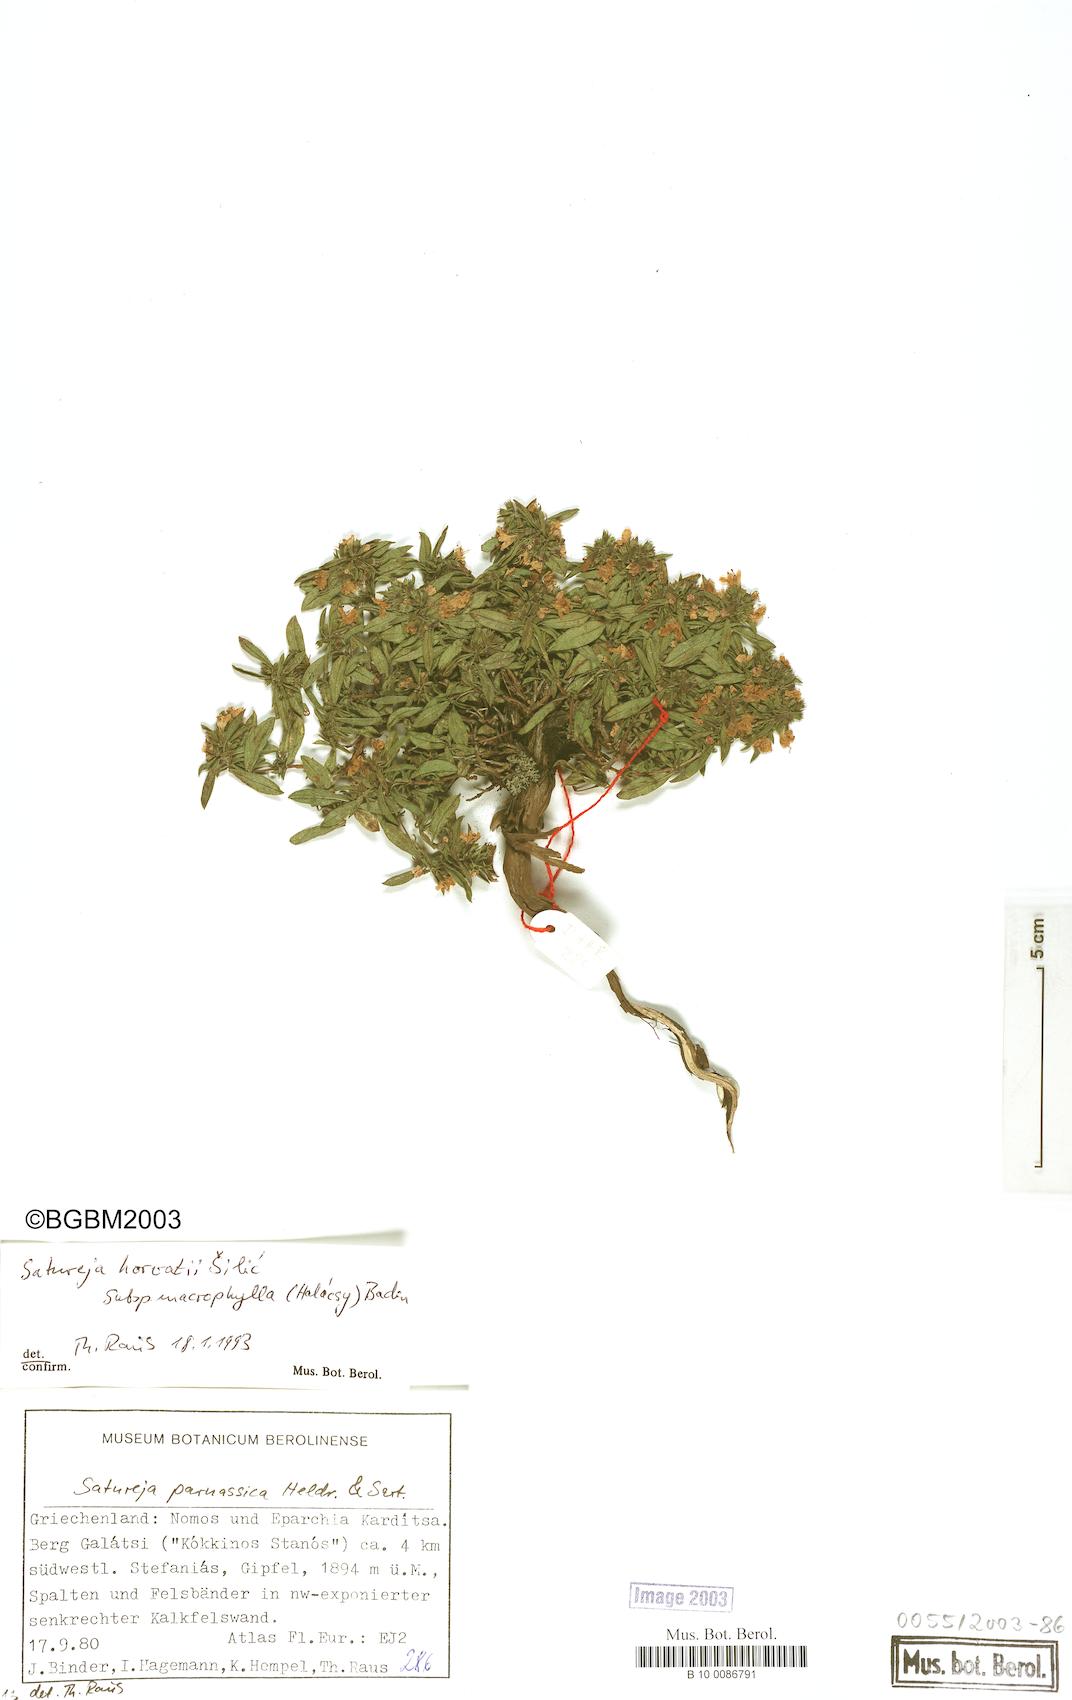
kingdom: Plantae
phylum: Tracheophyta
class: Magnoliopsida
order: Lamiales
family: Lamiaceae
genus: Satureja
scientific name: Satureja horvatii
